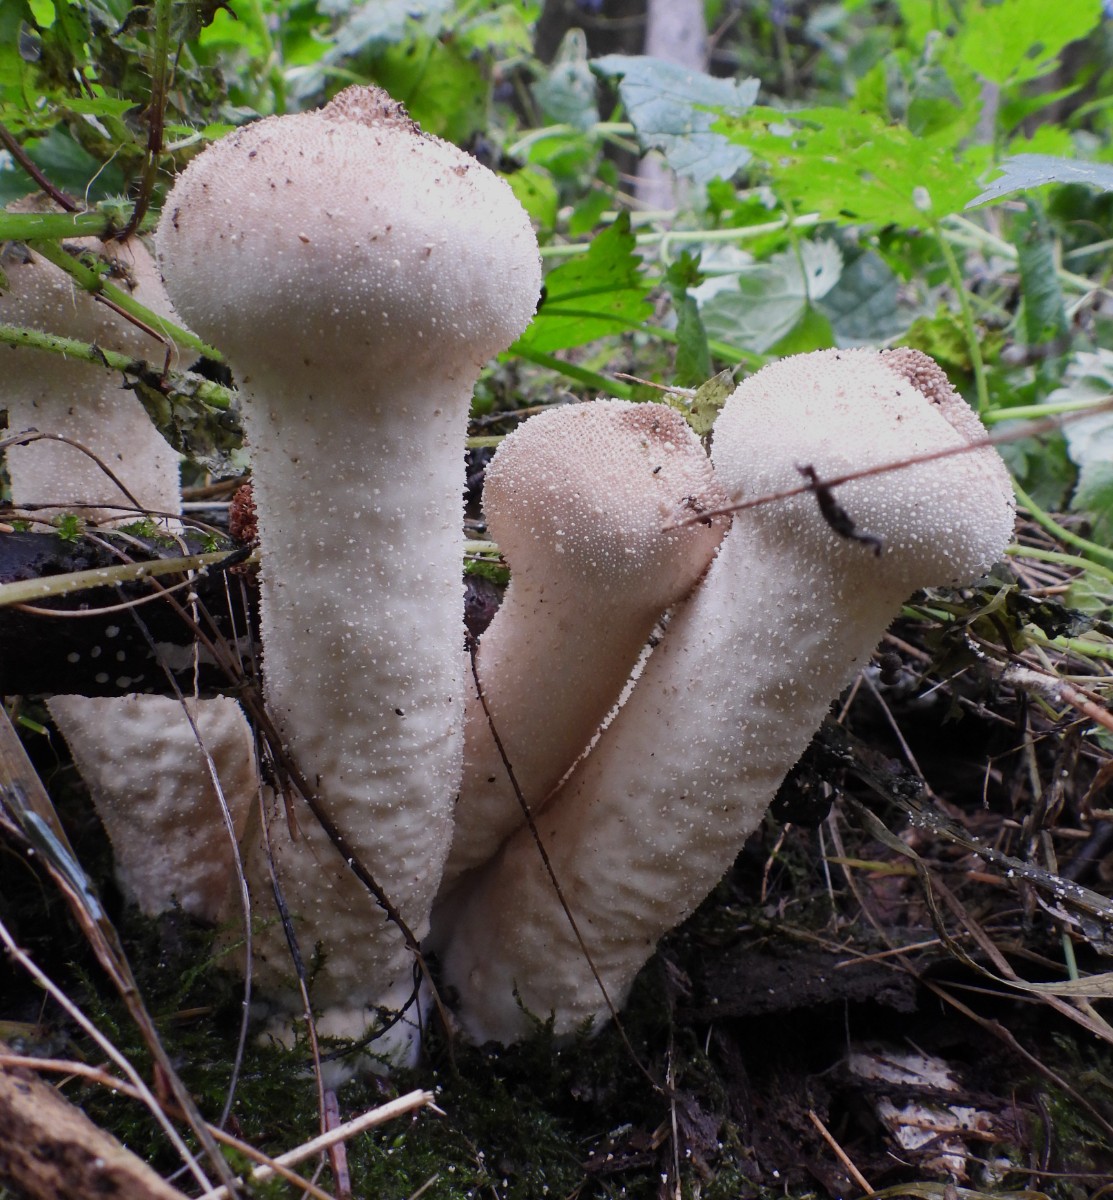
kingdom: Fungi
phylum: Basidiomycota
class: Agaricomycetes
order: Agaricales
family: Lycoperdaceae
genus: Lycoperdon
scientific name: Lycoperdon excipuliforme
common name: højstokket støvbold
